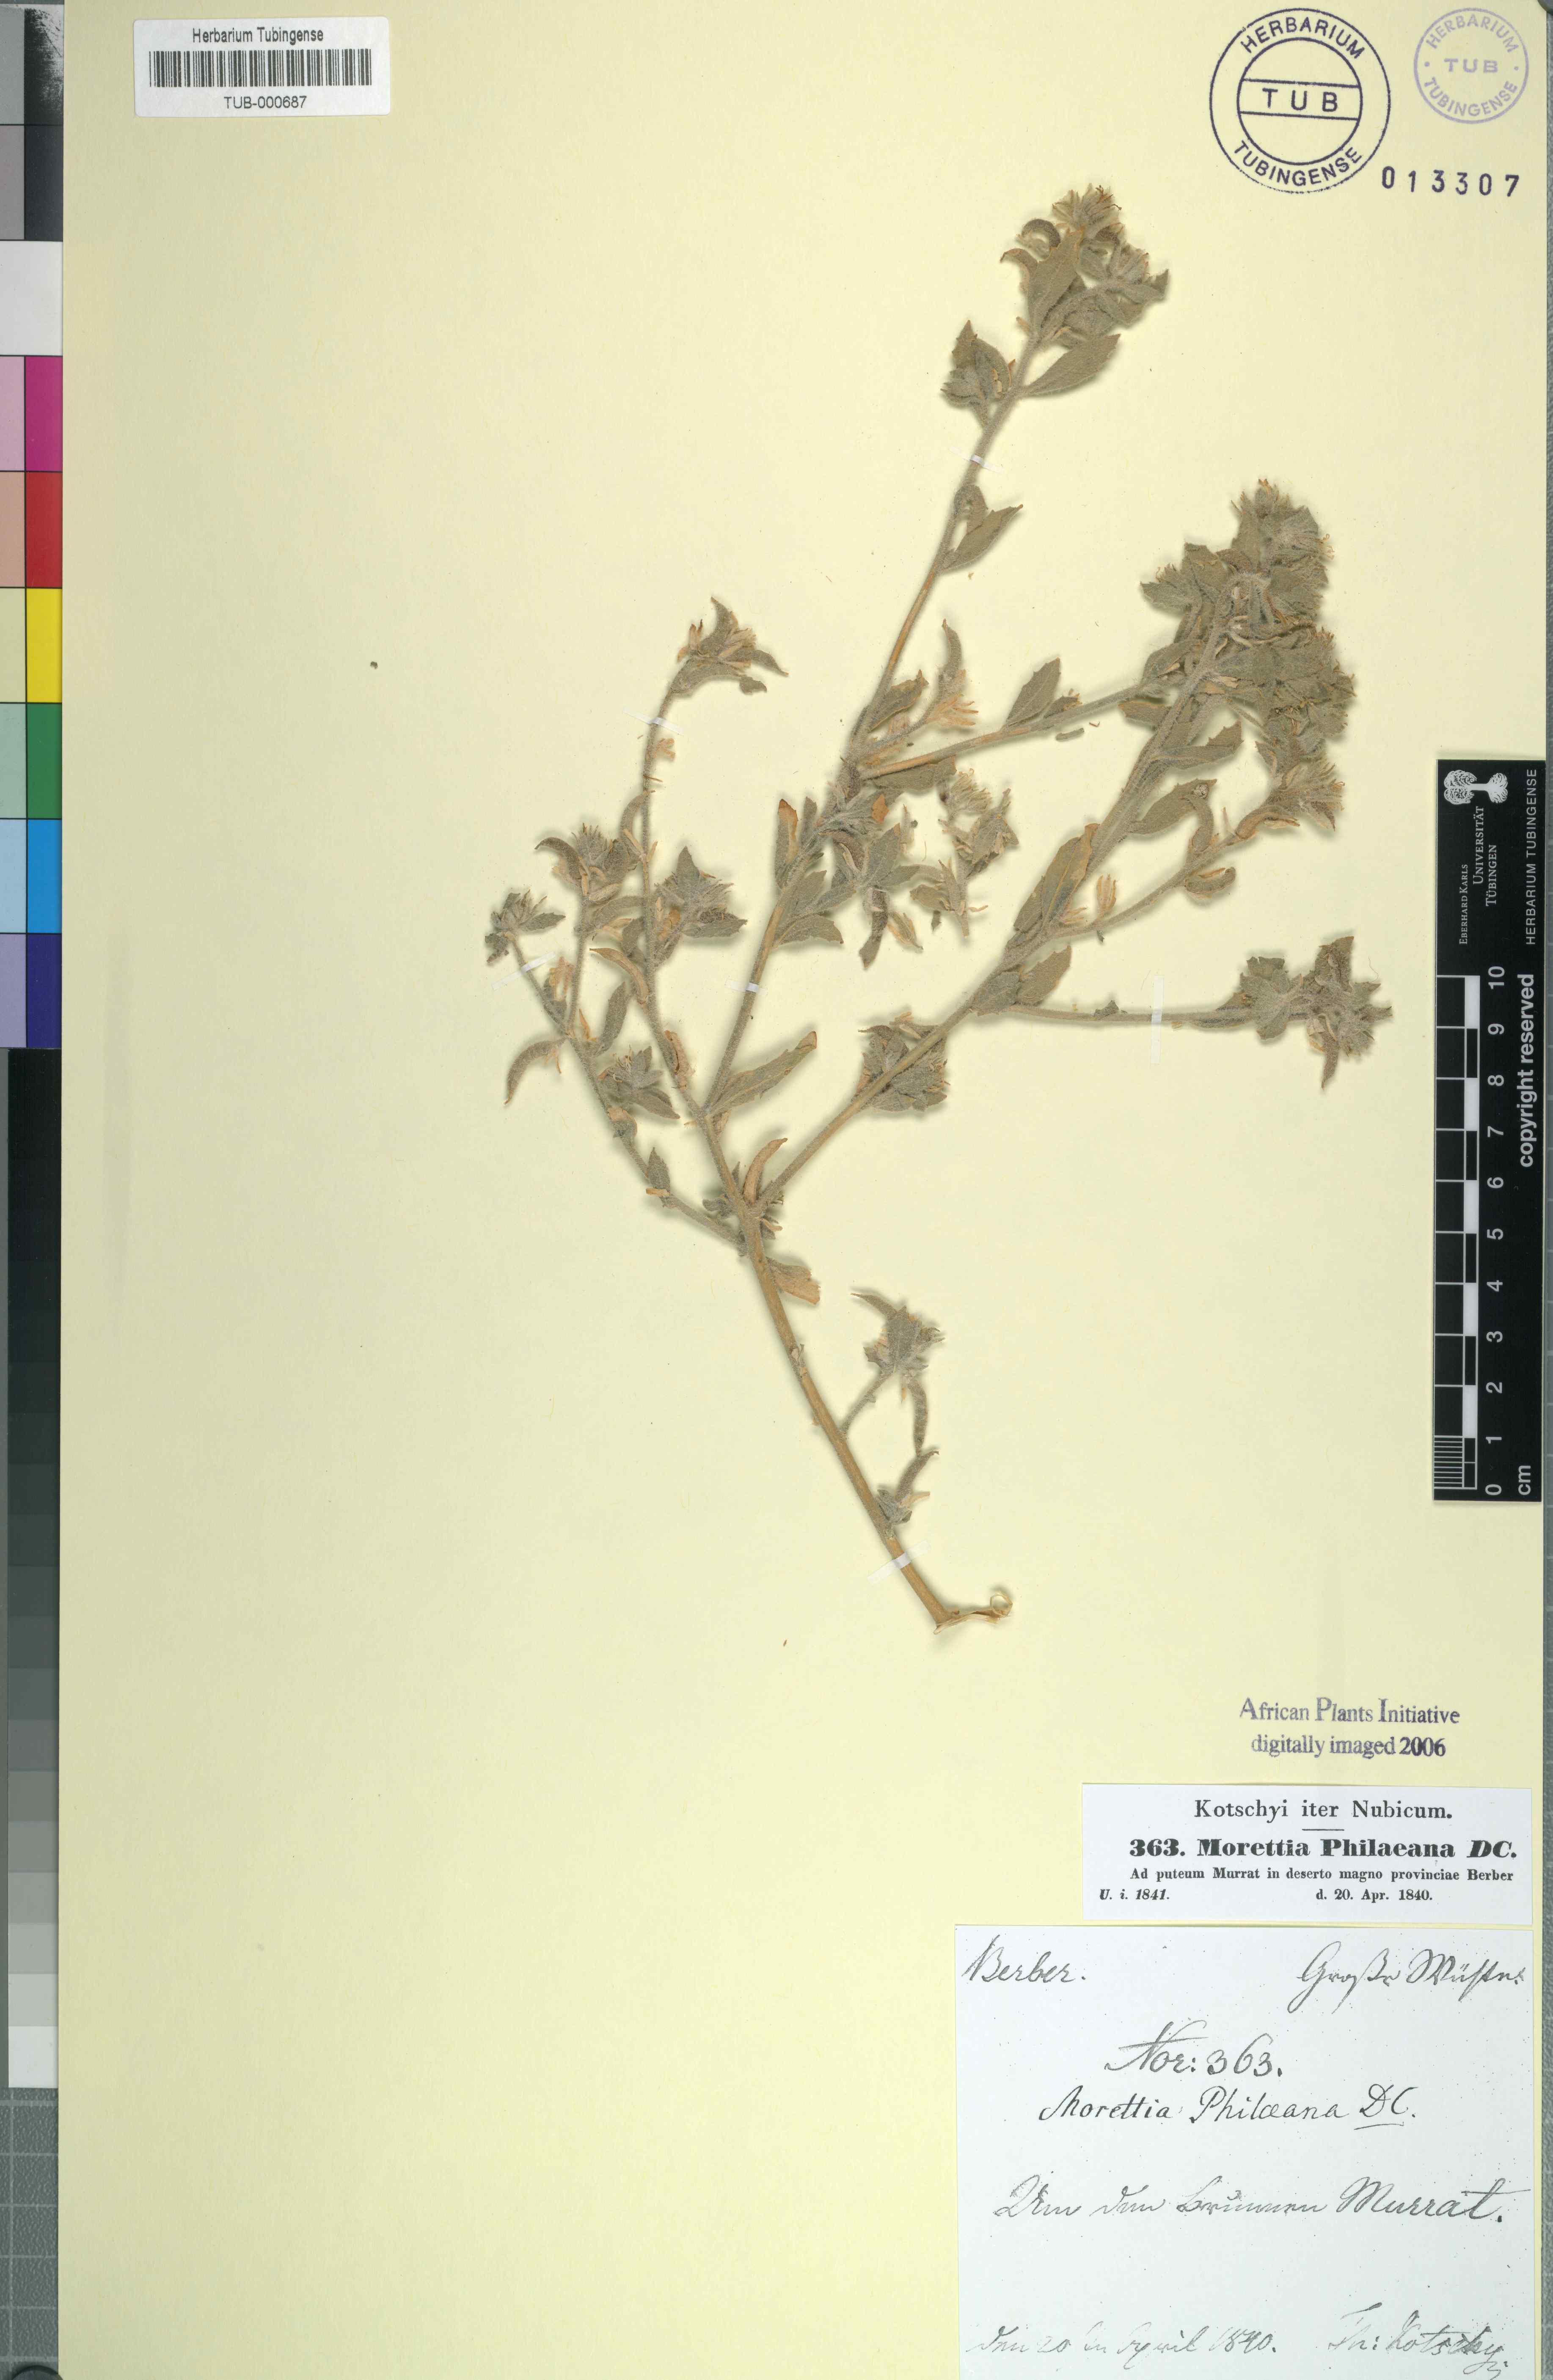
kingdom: Plantae
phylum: Tracheophyta
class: Magnoliopsida
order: Brassicales
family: Brassicaceae
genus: Morettia
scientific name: Morettia philaeana
